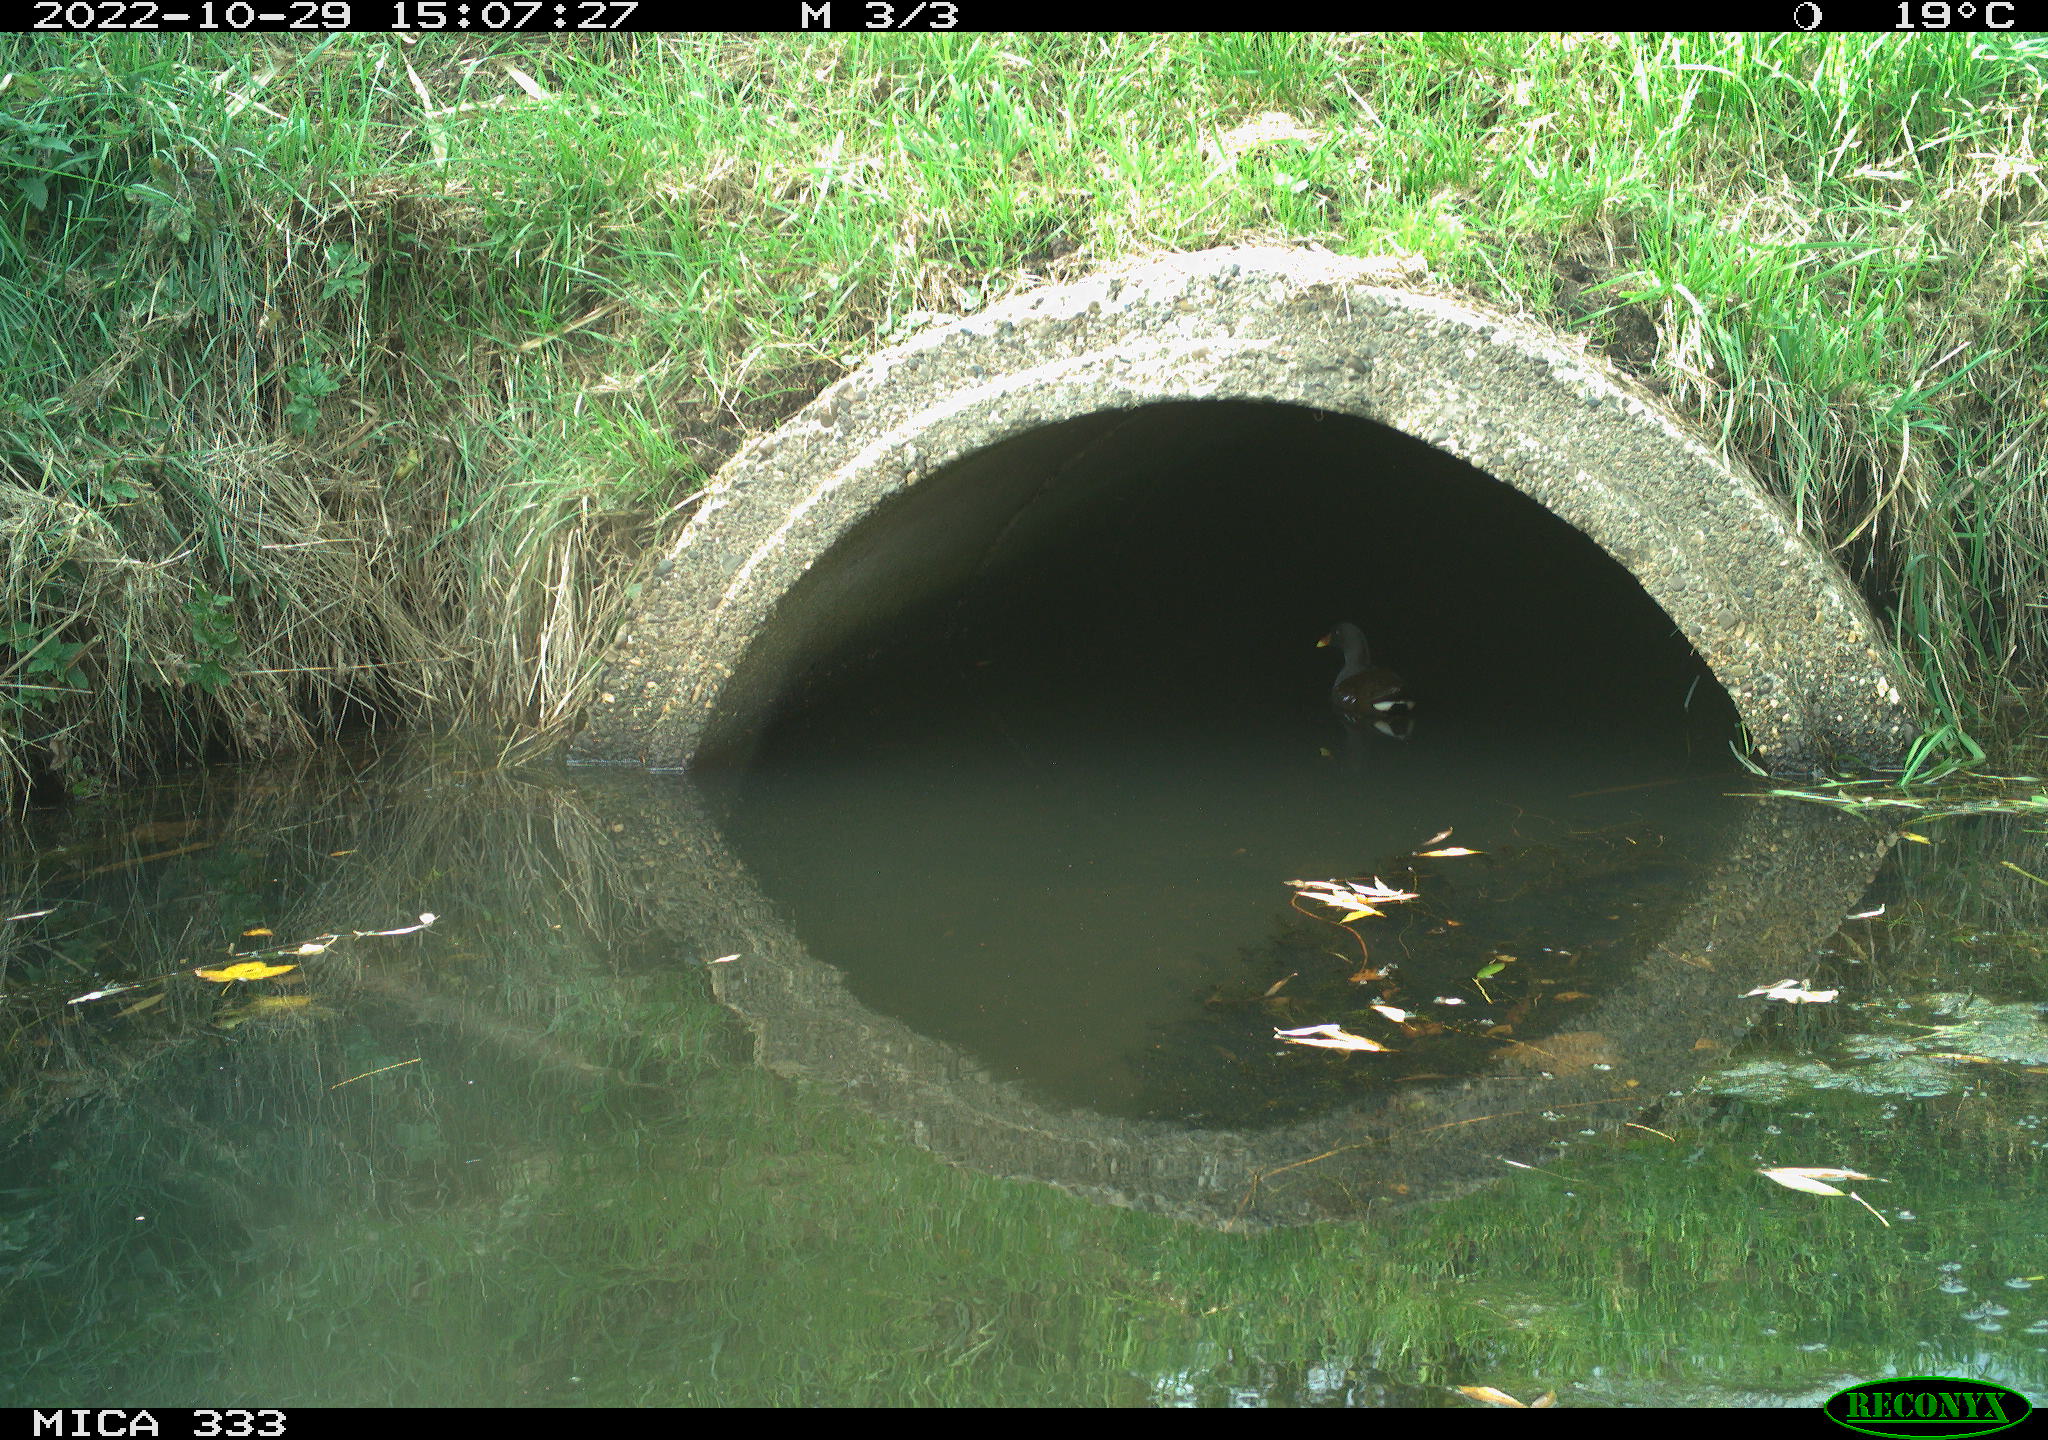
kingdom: Animalia
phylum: Chordata
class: Aves
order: Gruiformes
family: Rallidae
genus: Gallinula
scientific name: Gallinula chloropus
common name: Common moorhen
